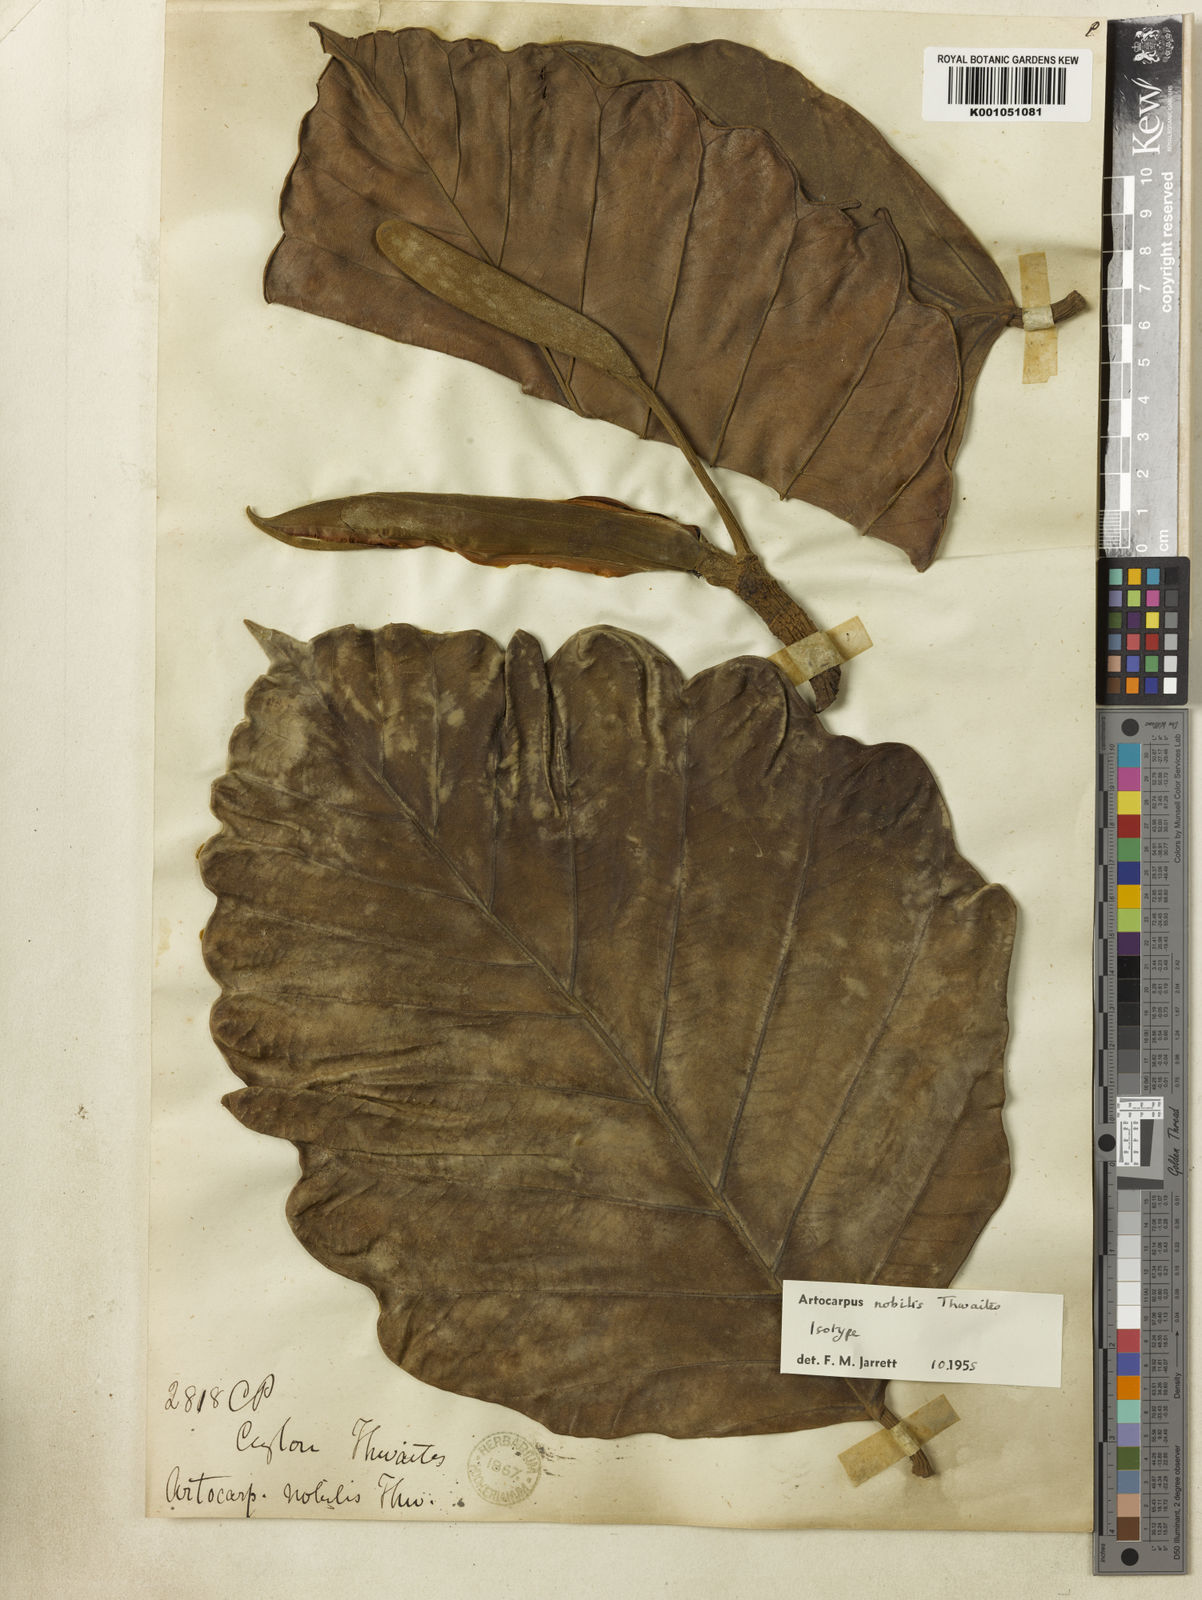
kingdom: Plantae
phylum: Tracheophyta
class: Magnoliopsida
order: Rosales
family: Moraceae
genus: Artocarpus
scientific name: Artocarpus nobilis
